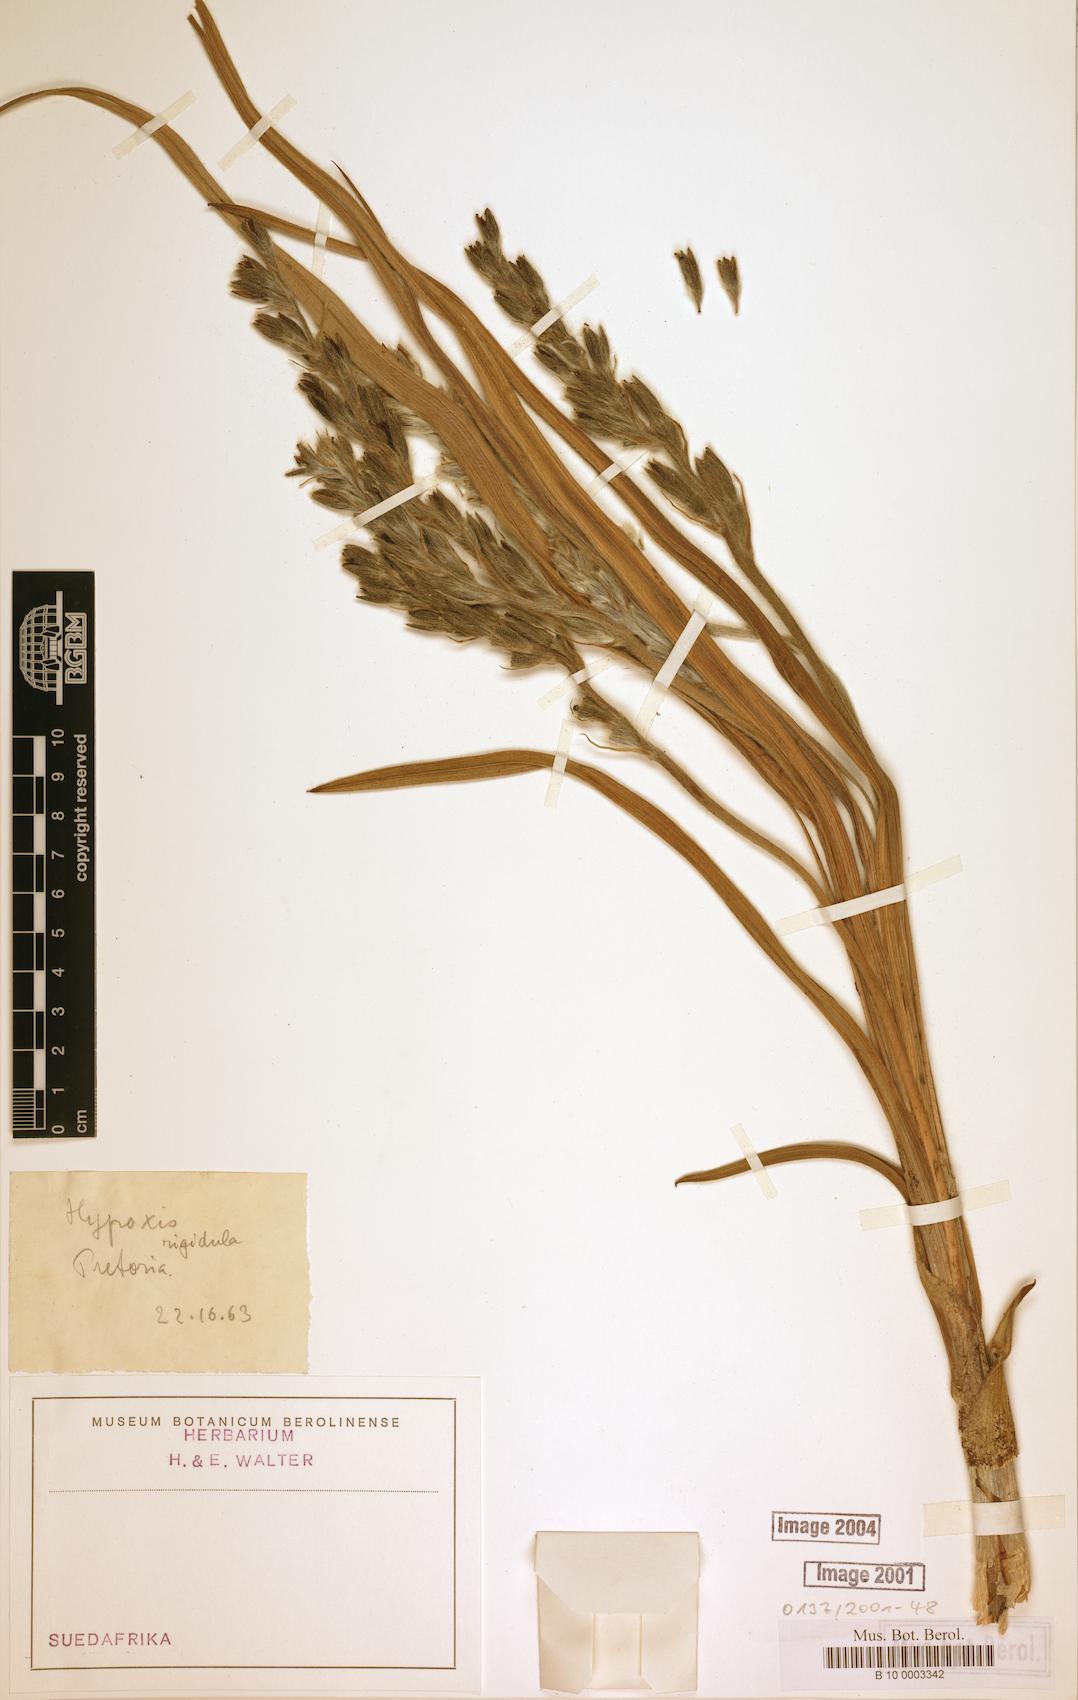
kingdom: Plantae
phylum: Tracheophyta
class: Liliopsida
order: Asparagales
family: Hypoxidaceae
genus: Hypoxis
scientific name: Hypoxis rigidula
